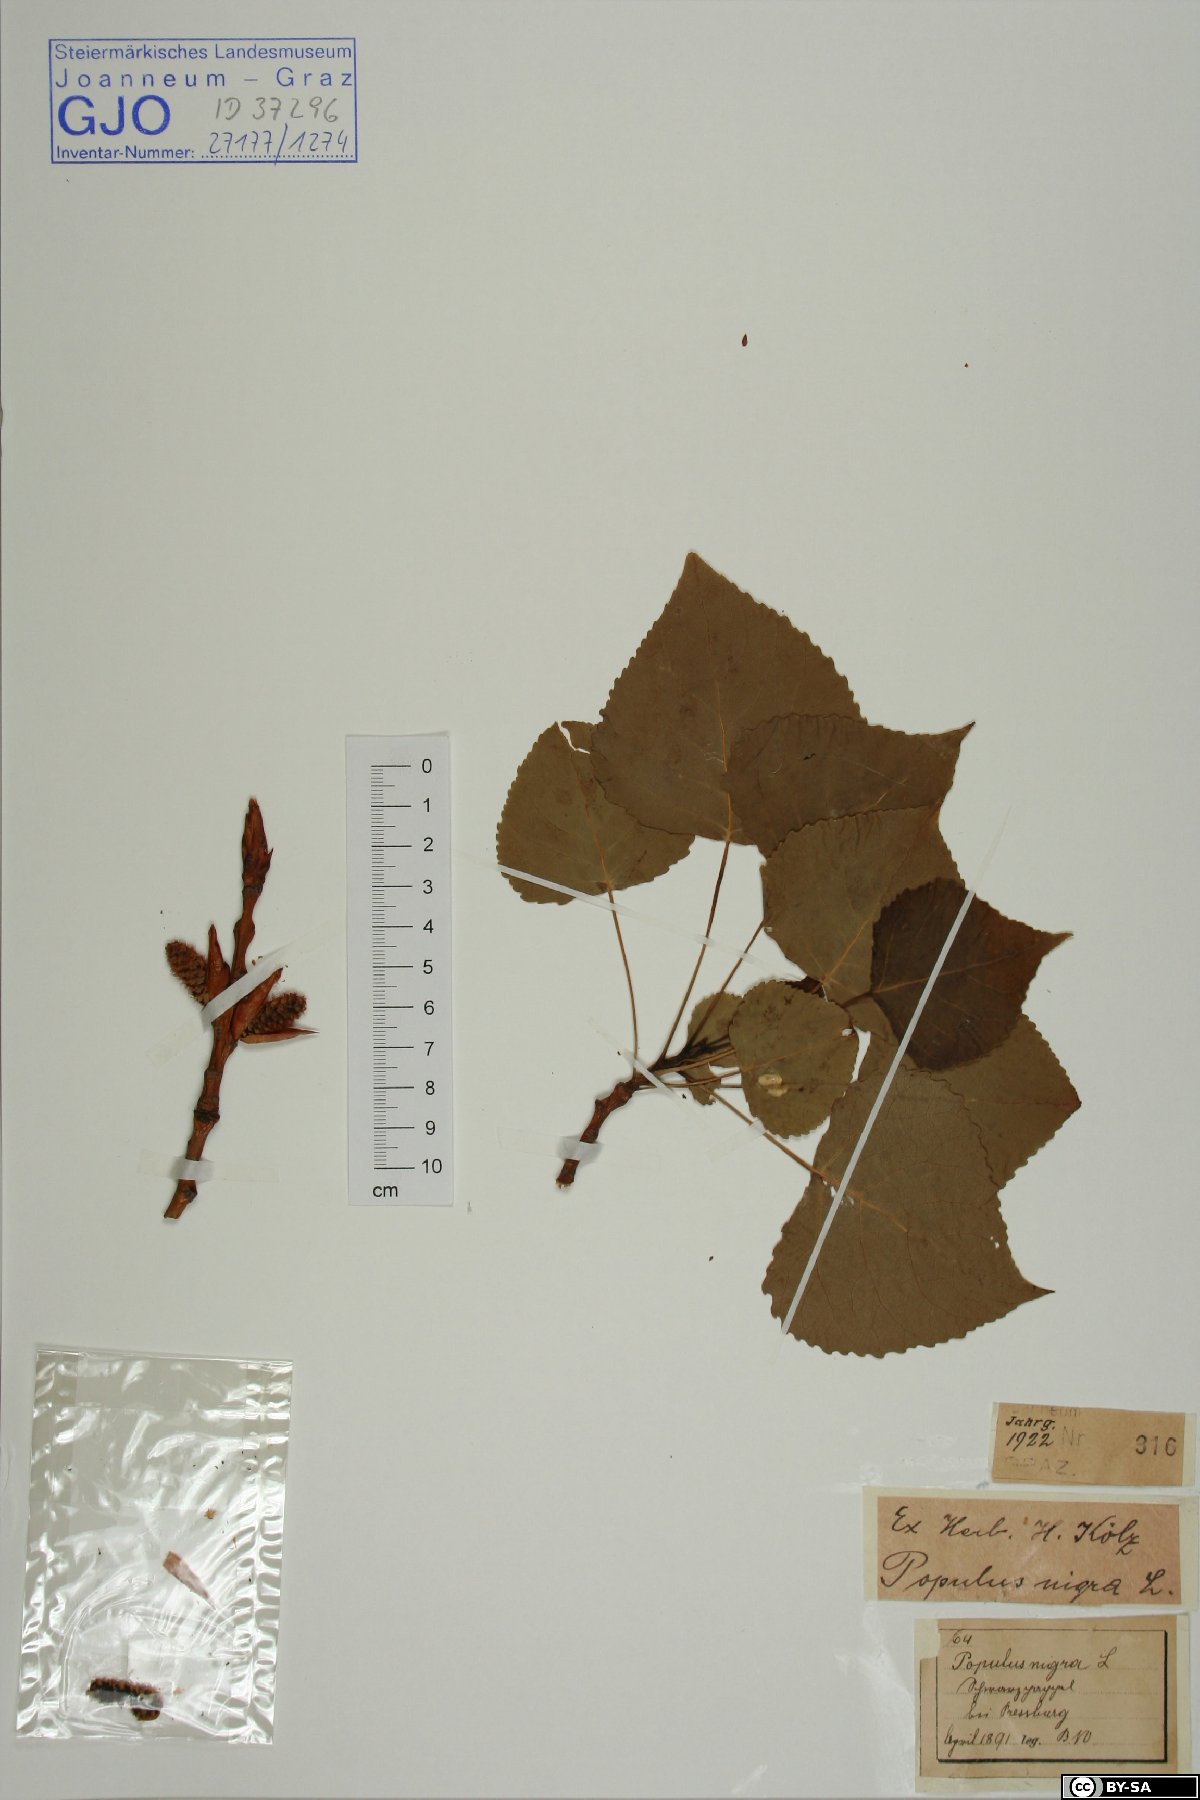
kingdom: Plantae
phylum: Tracheophyta
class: Magnoliopsida
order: Malpighiales
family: Salicaceae
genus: Populus
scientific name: Populus nigra
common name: Black poplar
